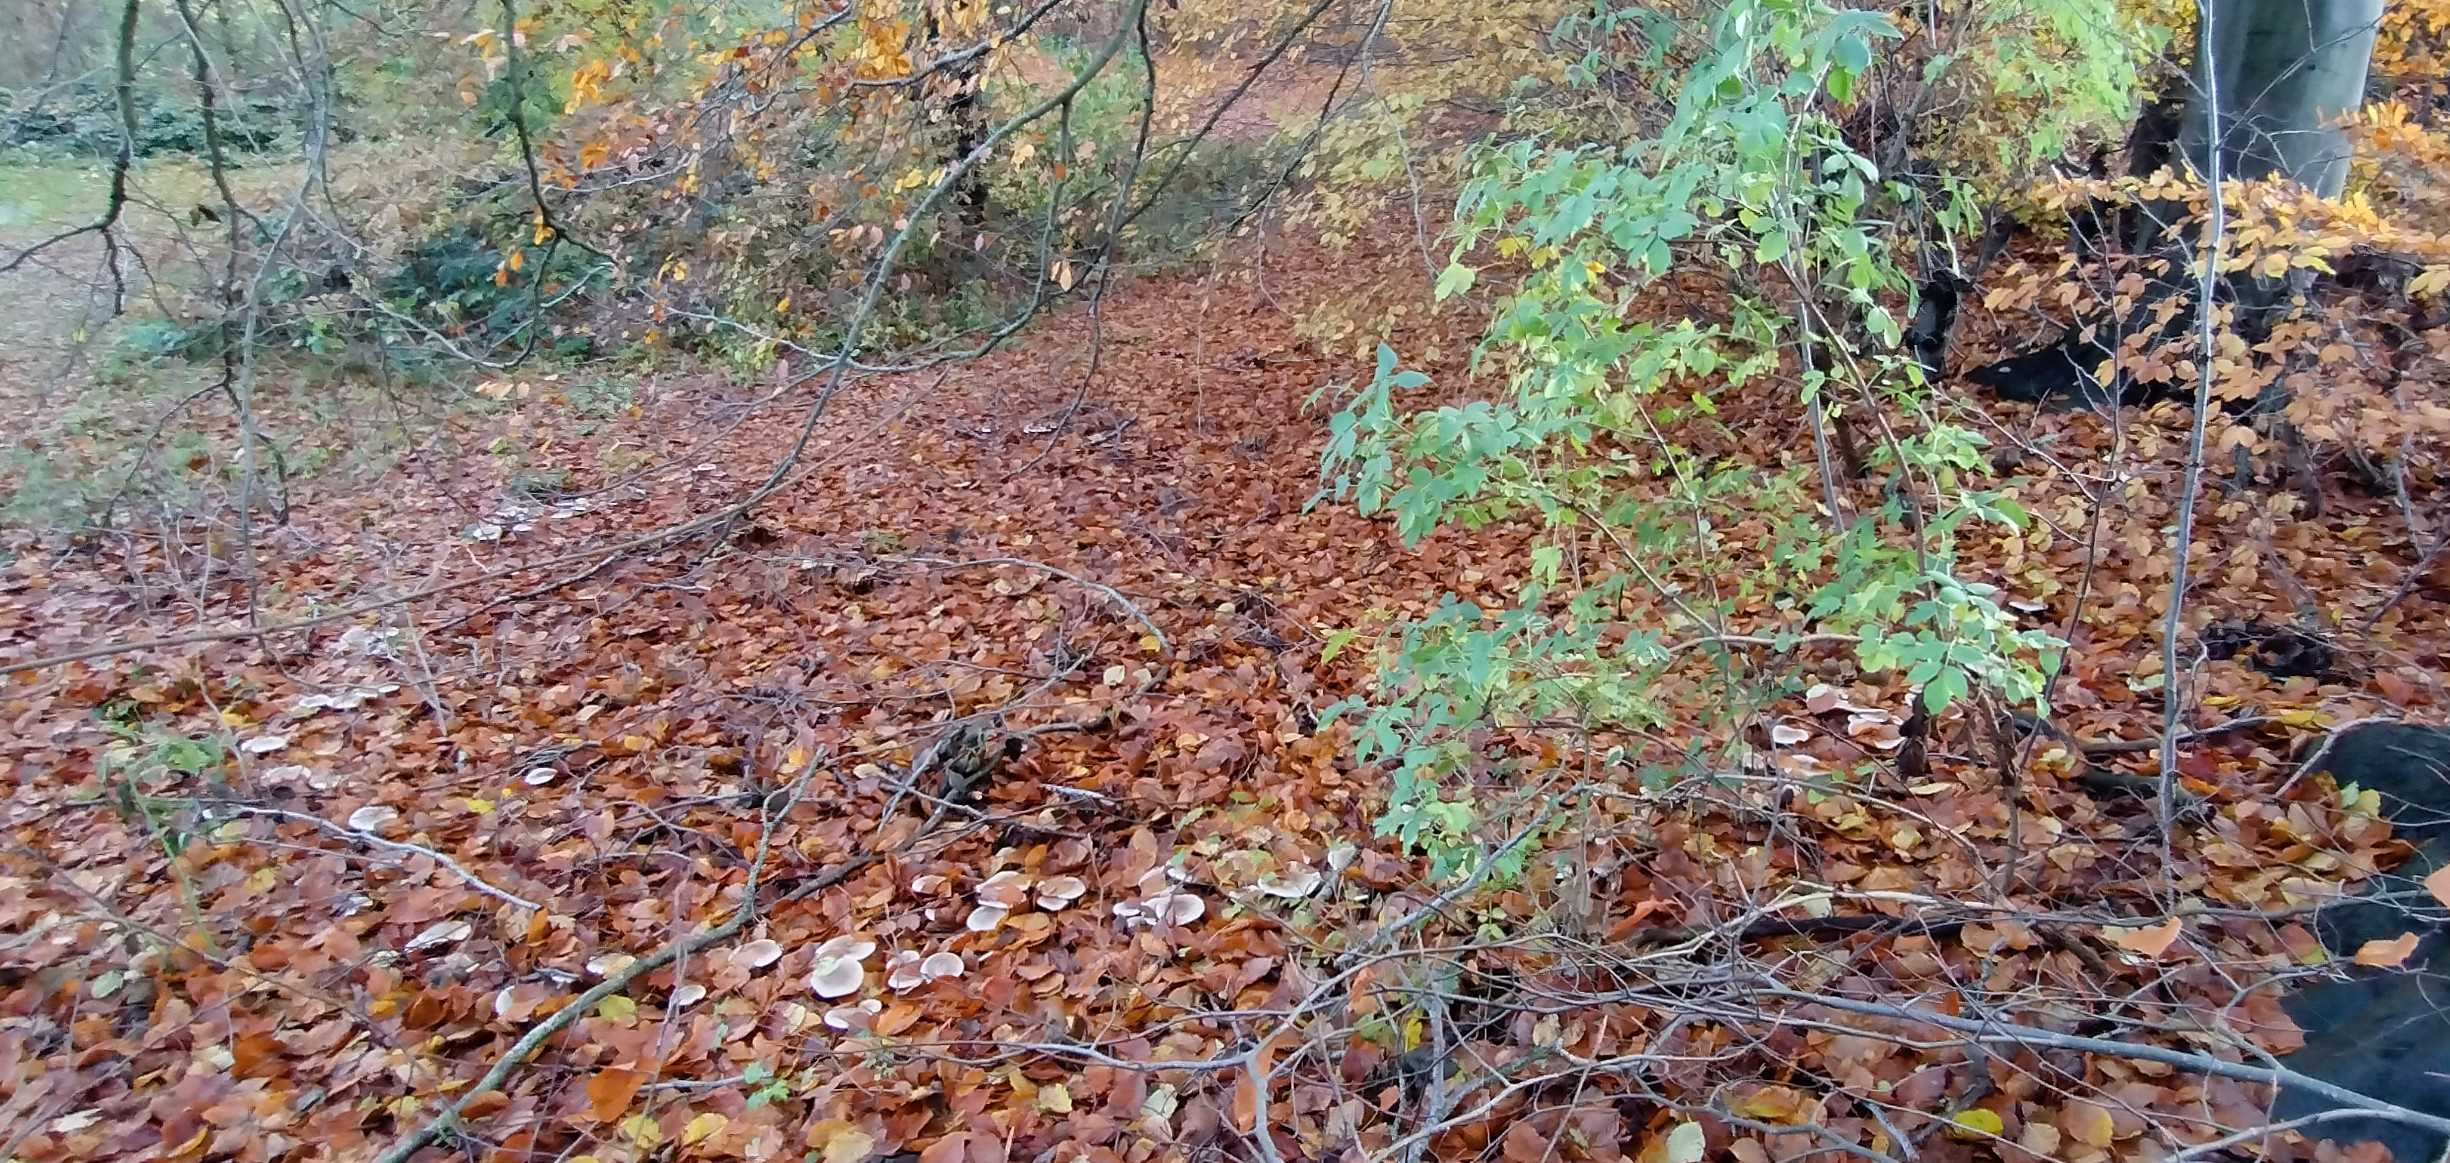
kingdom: Fungi
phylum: Basidiomycota
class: Agaricomycetes
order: Agaricales
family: Tricholomataceae
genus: Clitocybe
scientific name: Clitocybe nebularis
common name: tåge-tragthat
